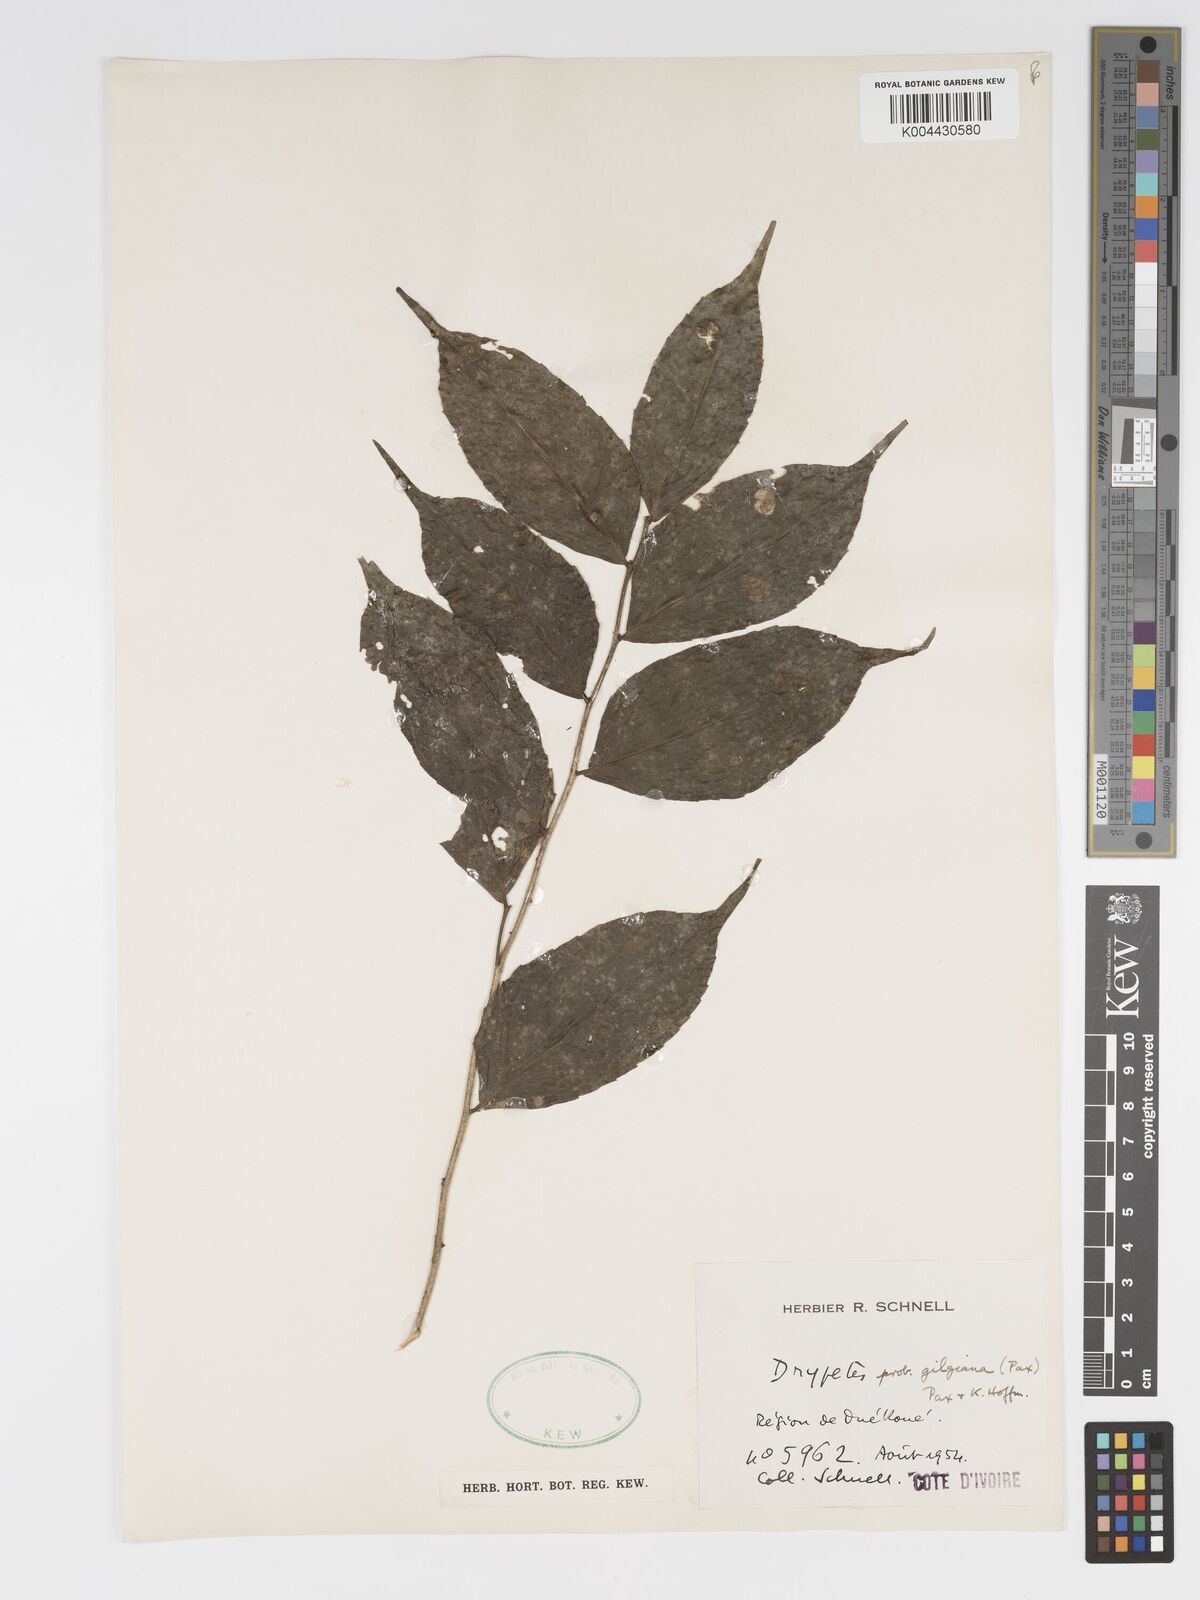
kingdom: Plantae
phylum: Tracheophyta
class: Magnoliopsida
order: Malpighiales
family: Putranjivaceae
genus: Drypetes
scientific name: Drypetes gilgiana
